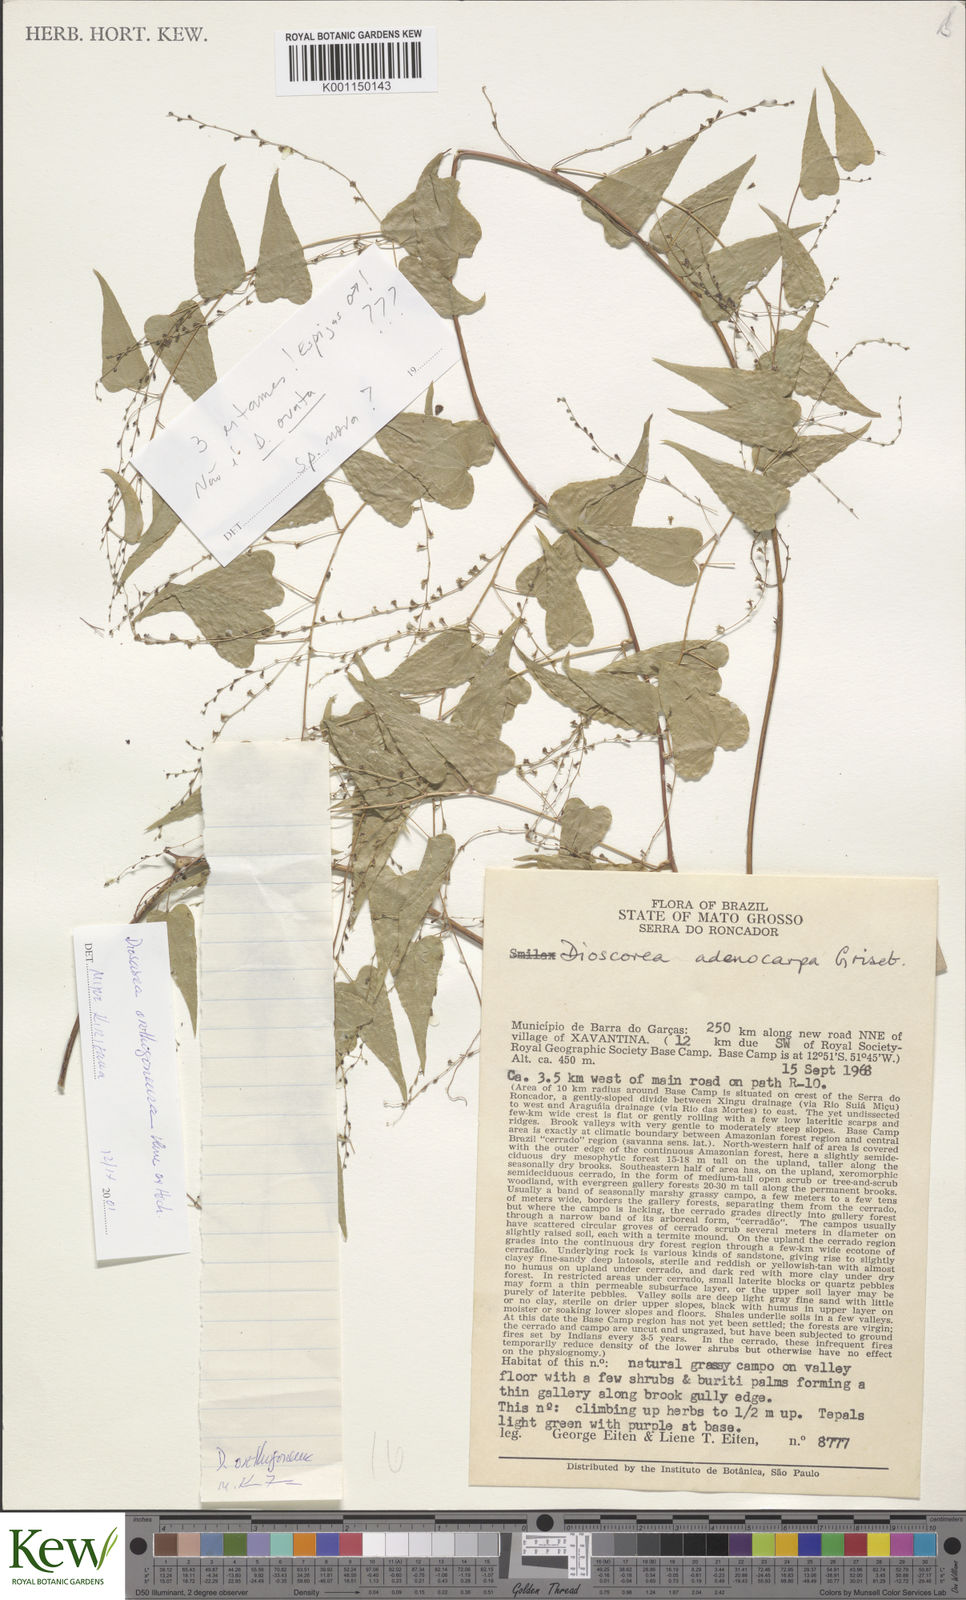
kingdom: Plantae
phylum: Tracheophyta
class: Liliopsida
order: Dioscoreales
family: Dioscoreaceae
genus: Dioscorea
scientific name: Dioscorea
